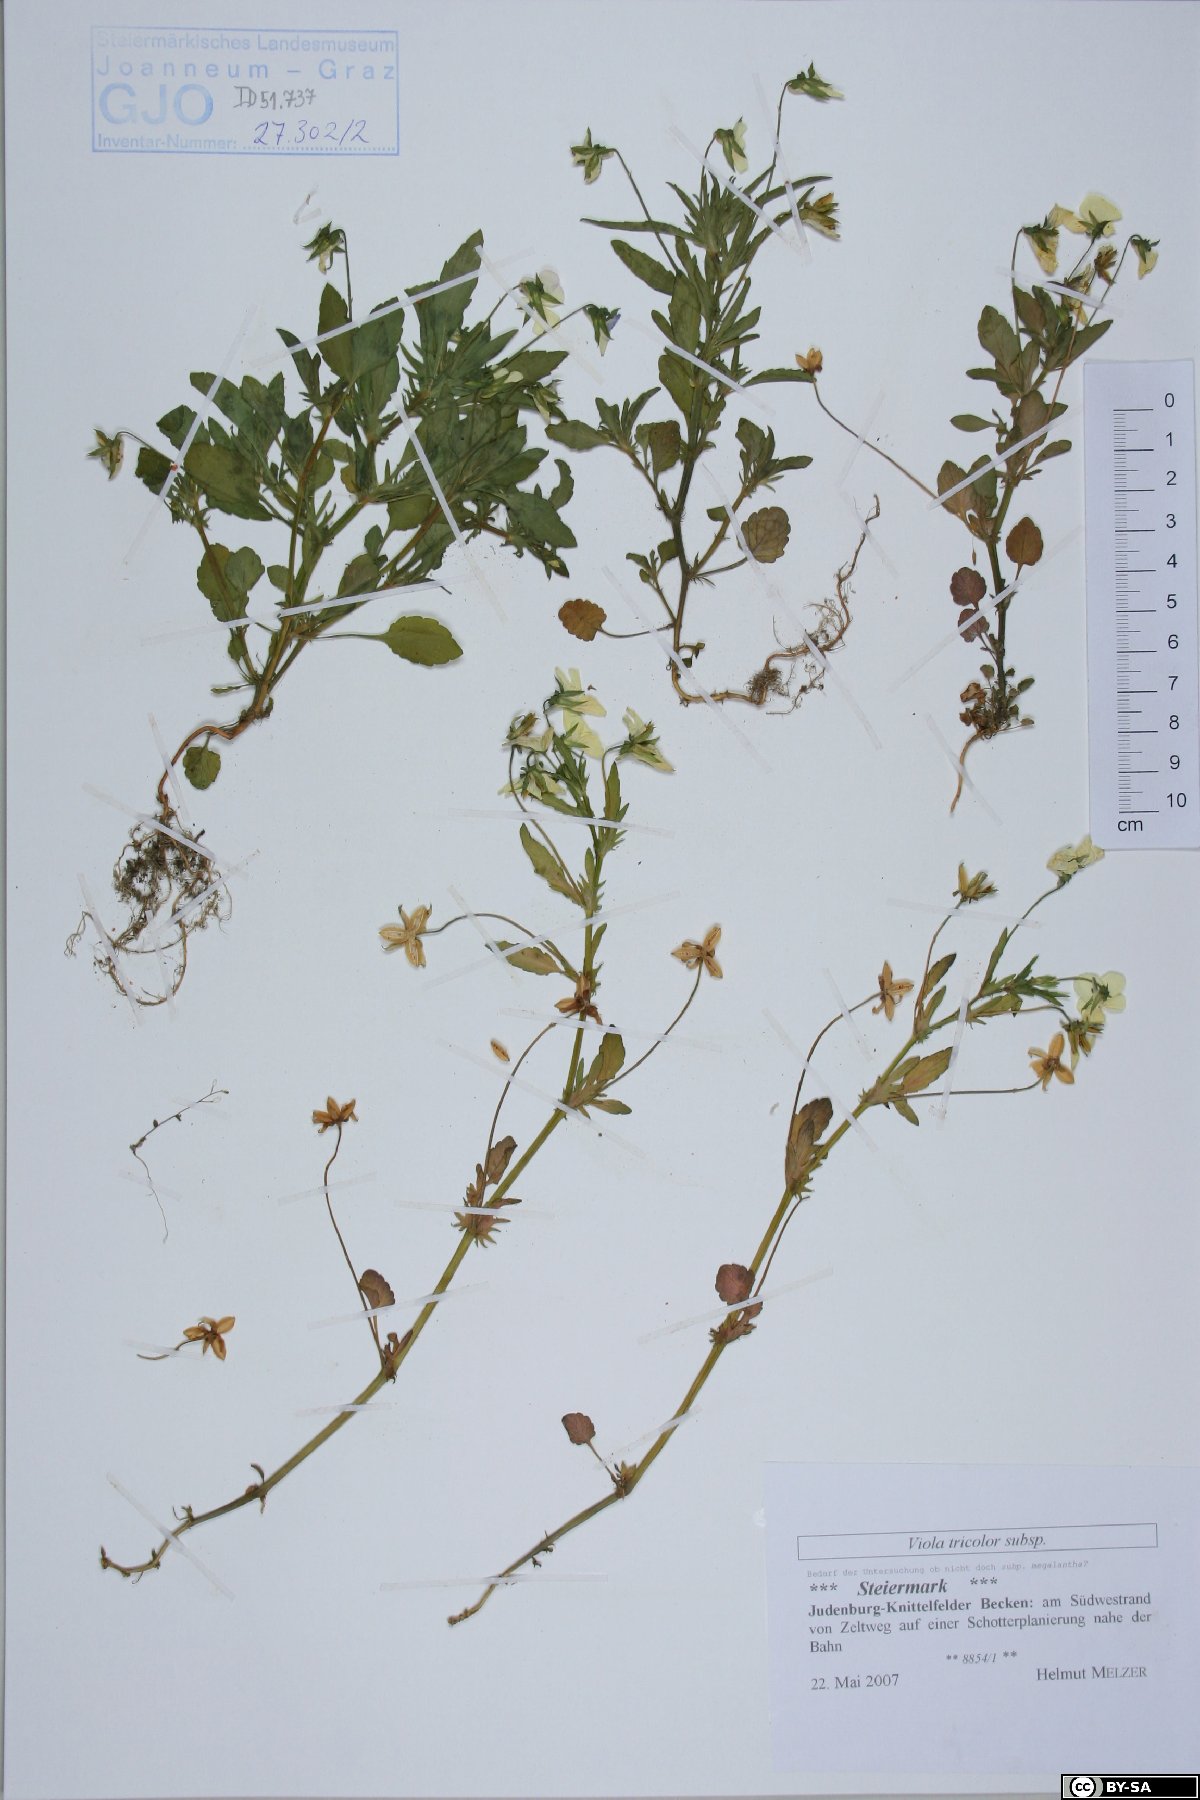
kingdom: Plantae
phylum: Tracheophyta
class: Magnoliopsida
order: Malpighiales
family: Violaceae
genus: Viola
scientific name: Viola tricolor
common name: Pansy
